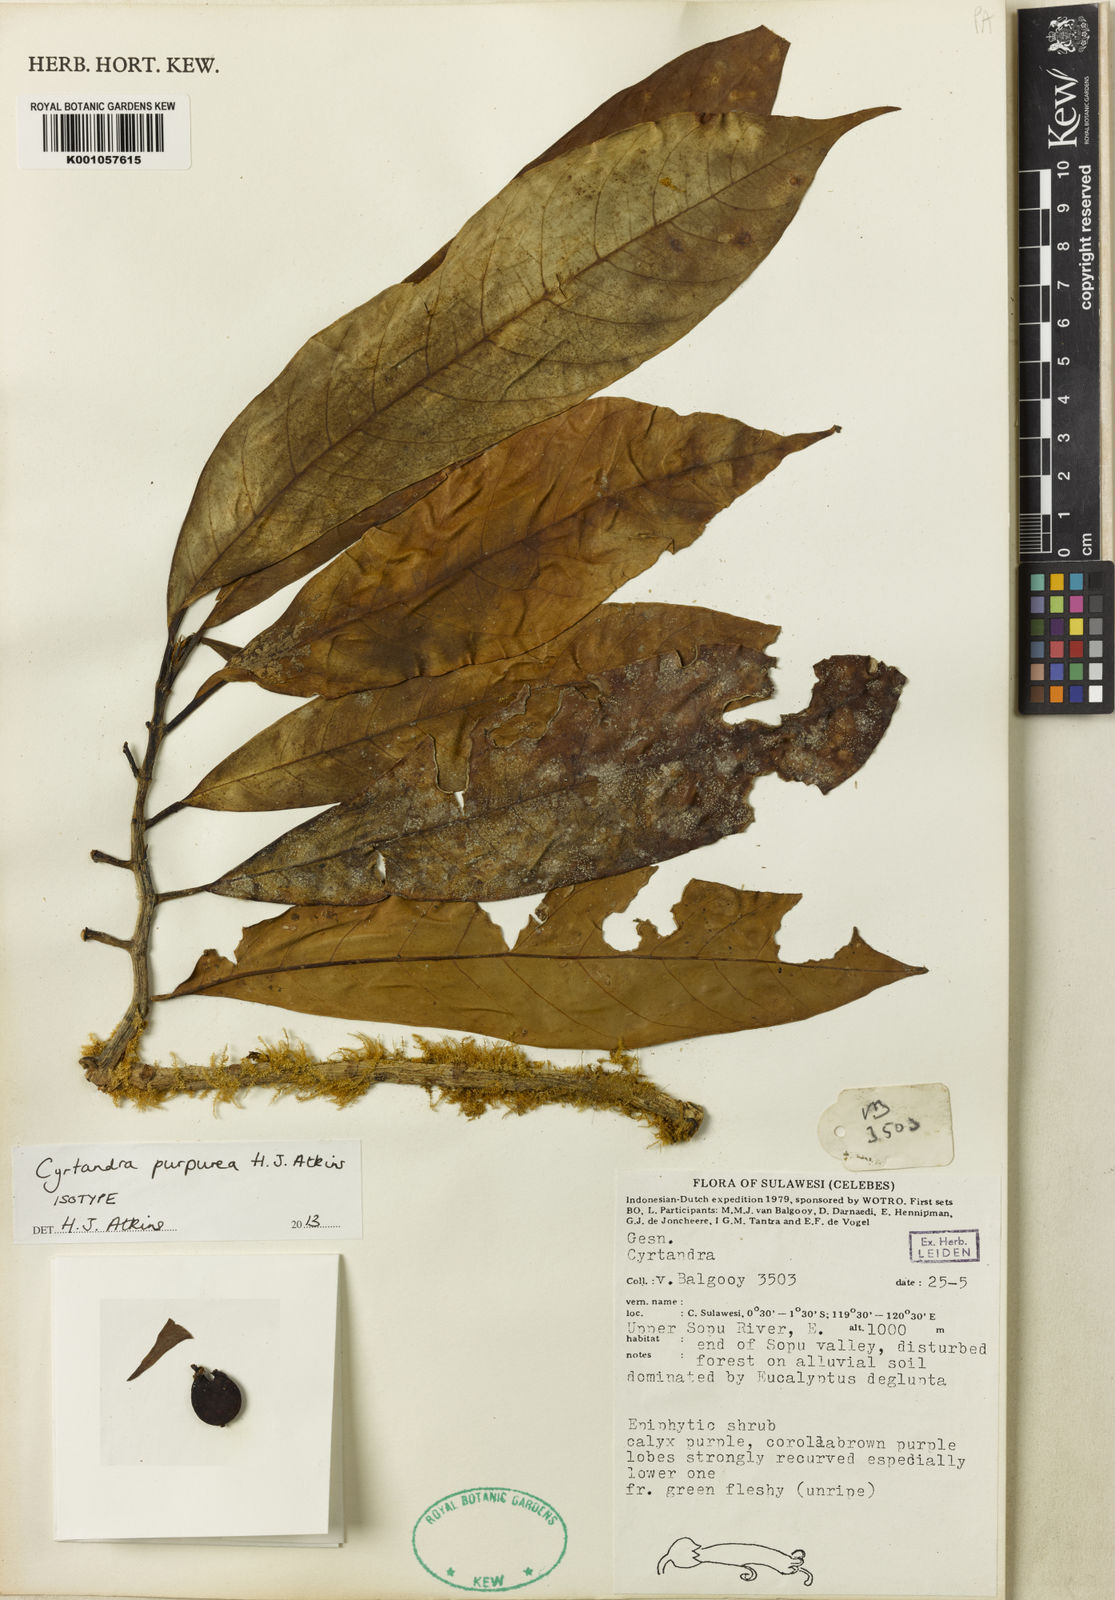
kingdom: Plantae
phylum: Tracheophyta
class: Magnoliopsida
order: Lamiales
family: Gesneriaceae
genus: Cyrtandra
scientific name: Cyrtandra purpurea
